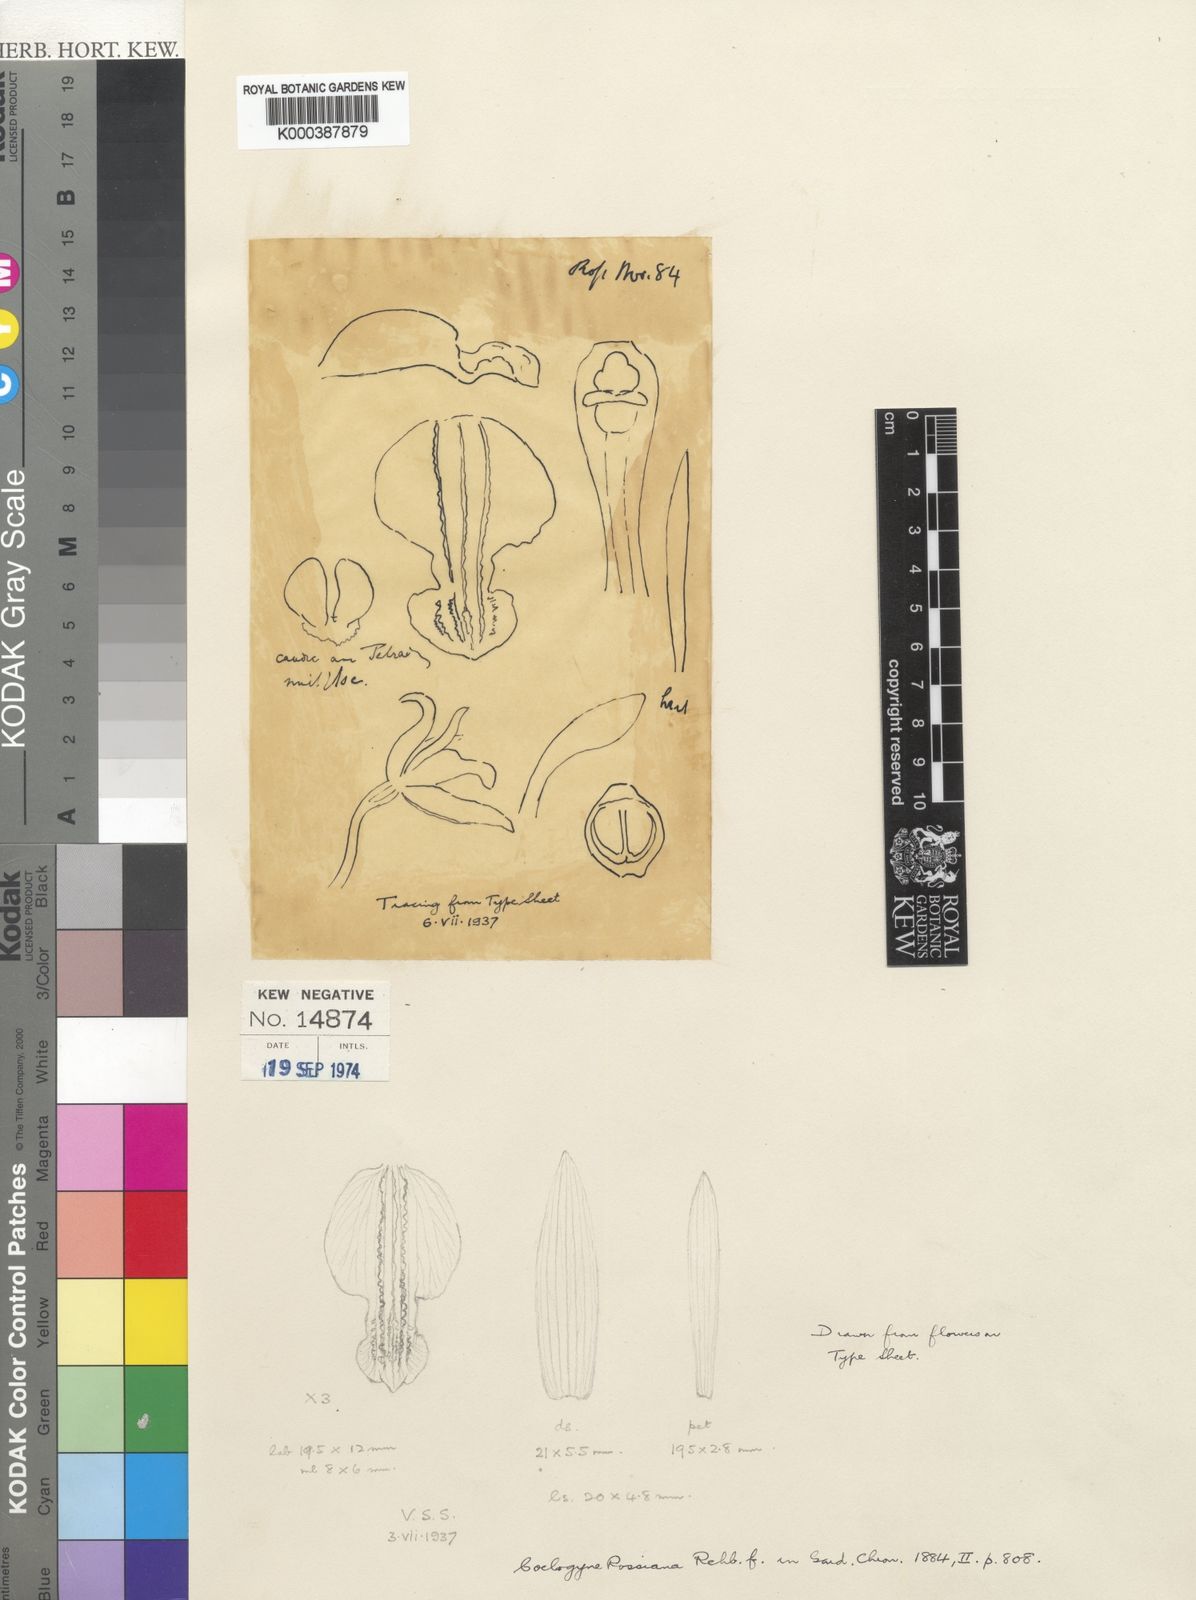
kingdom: Plantae
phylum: Tracheophyta
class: Liliopsida
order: Asparagales
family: Orchidaceae
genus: Coelogyne
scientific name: Coelogyne trinervis
